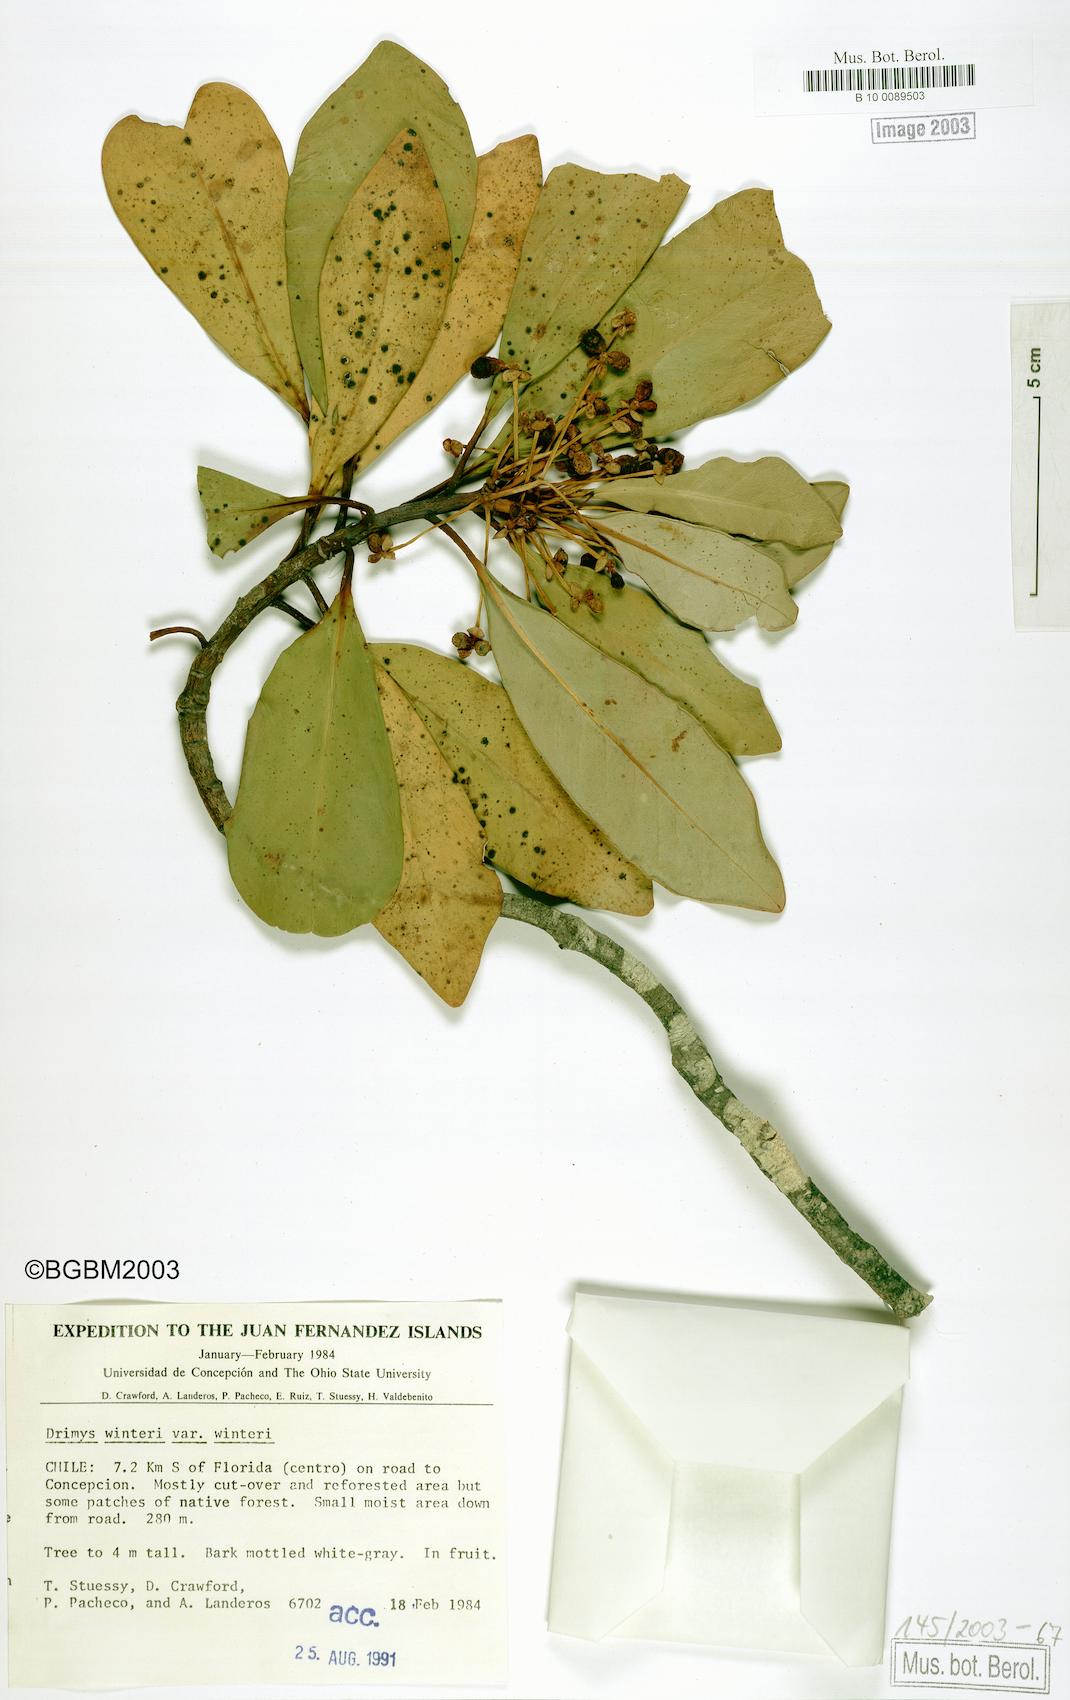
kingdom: Plantae
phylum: Tracheophyta
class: Magnoliopsida
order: Canellales
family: Winteraceae
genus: Drimys
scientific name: Drimys winteri
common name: Winter's-bark
